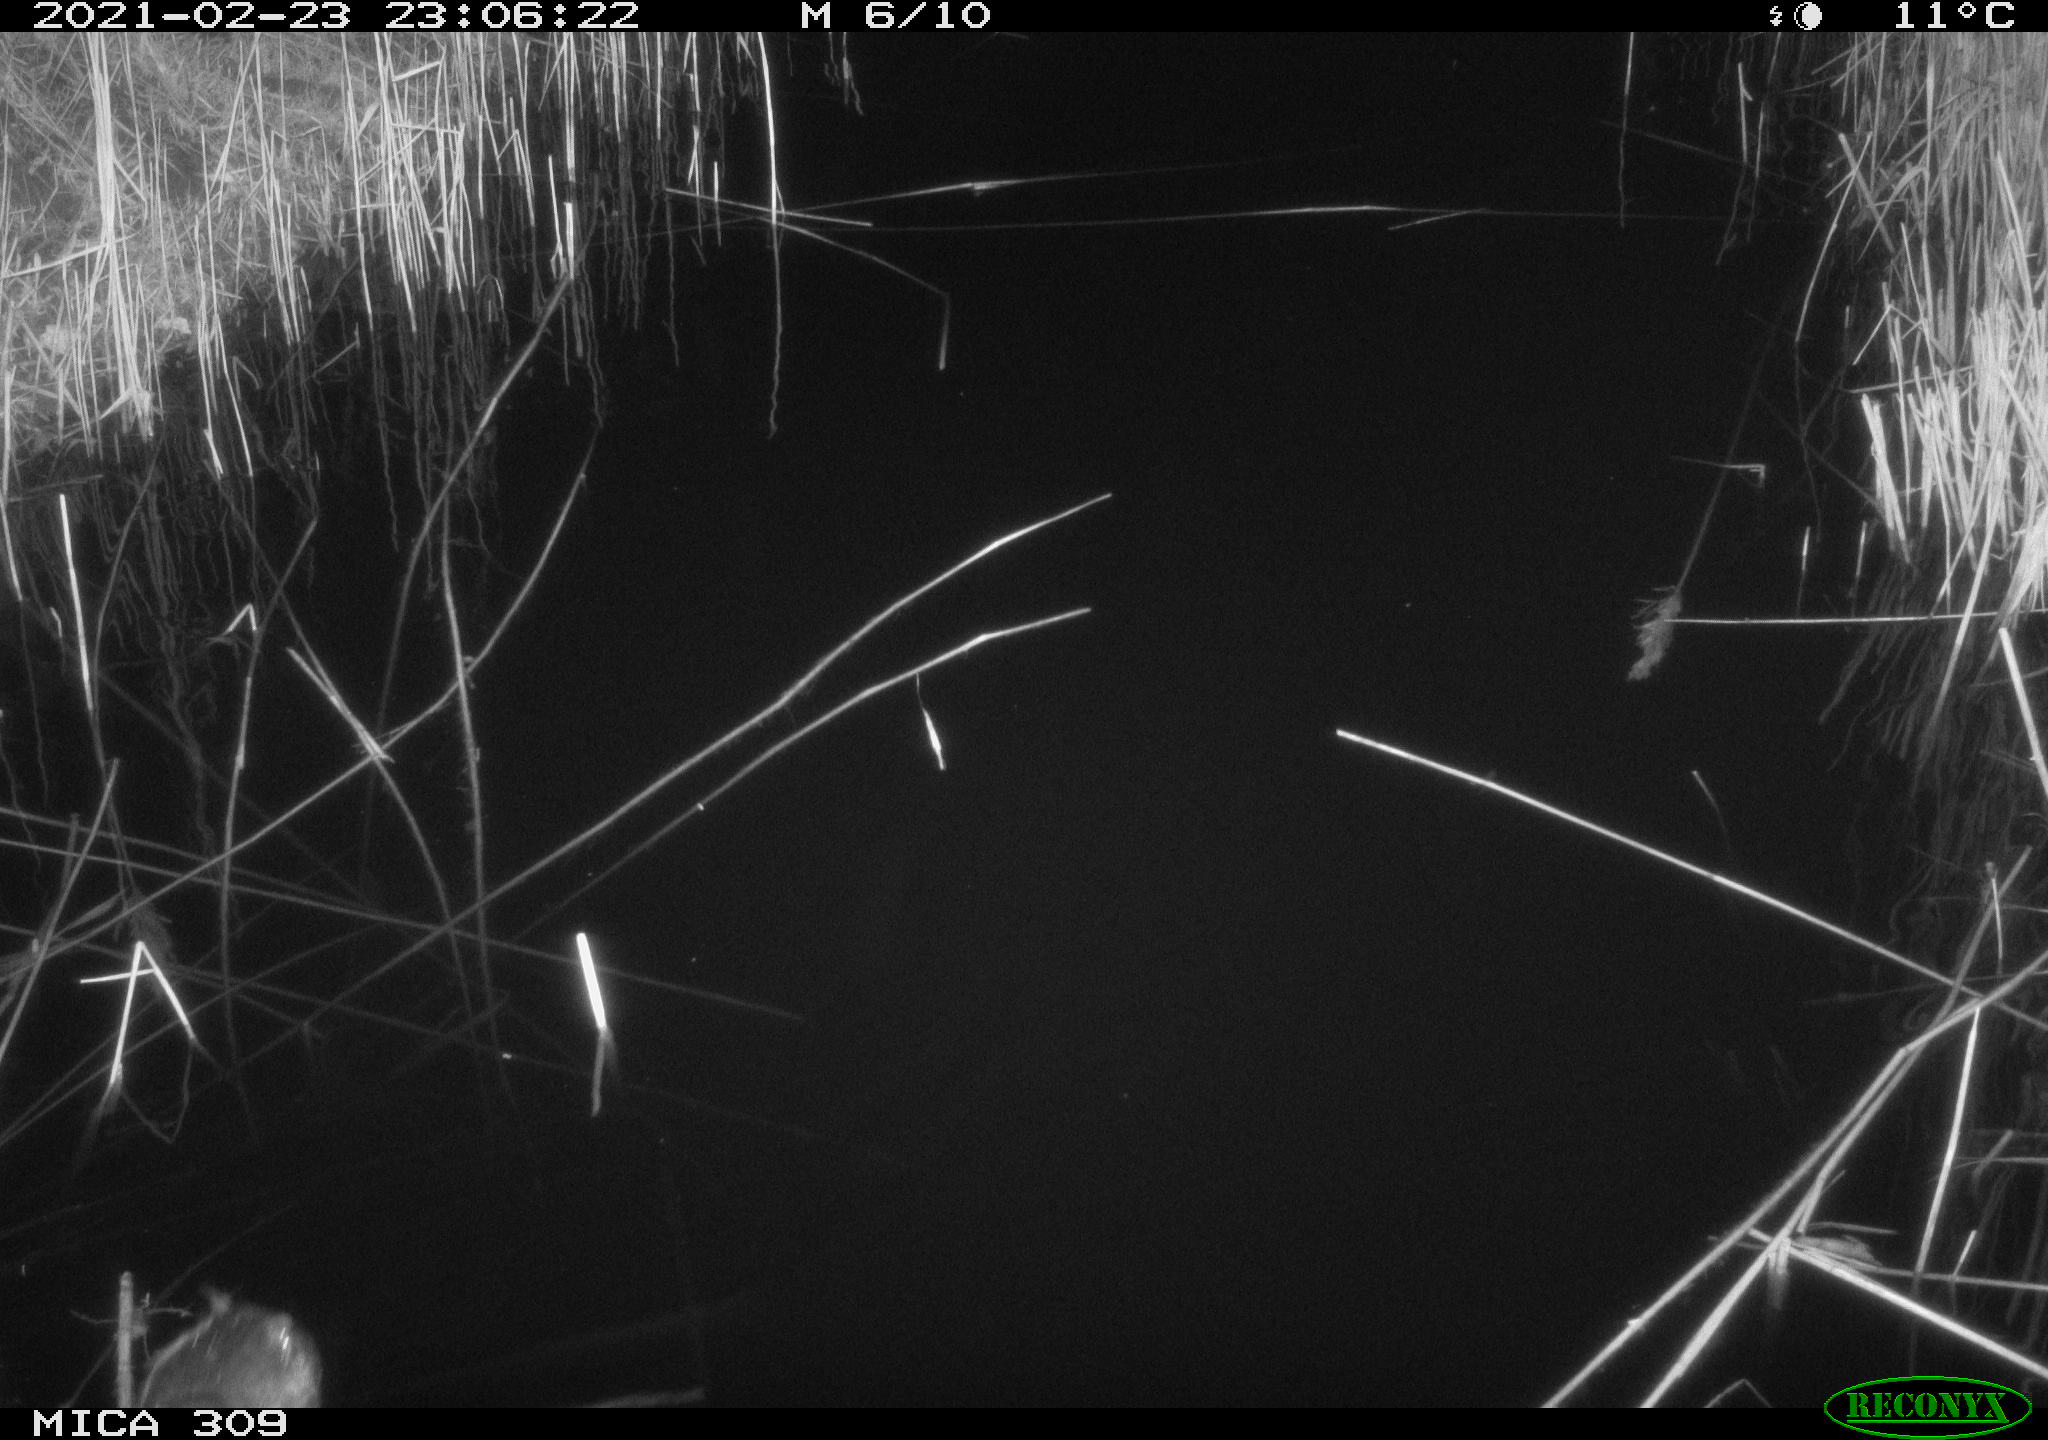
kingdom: Animalia
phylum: Chordata
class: Aves
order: Podicipediformes
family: Podicipedidae
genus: Tachybaptus
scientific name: Tachybaptus ruficollis
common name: Little grebe
